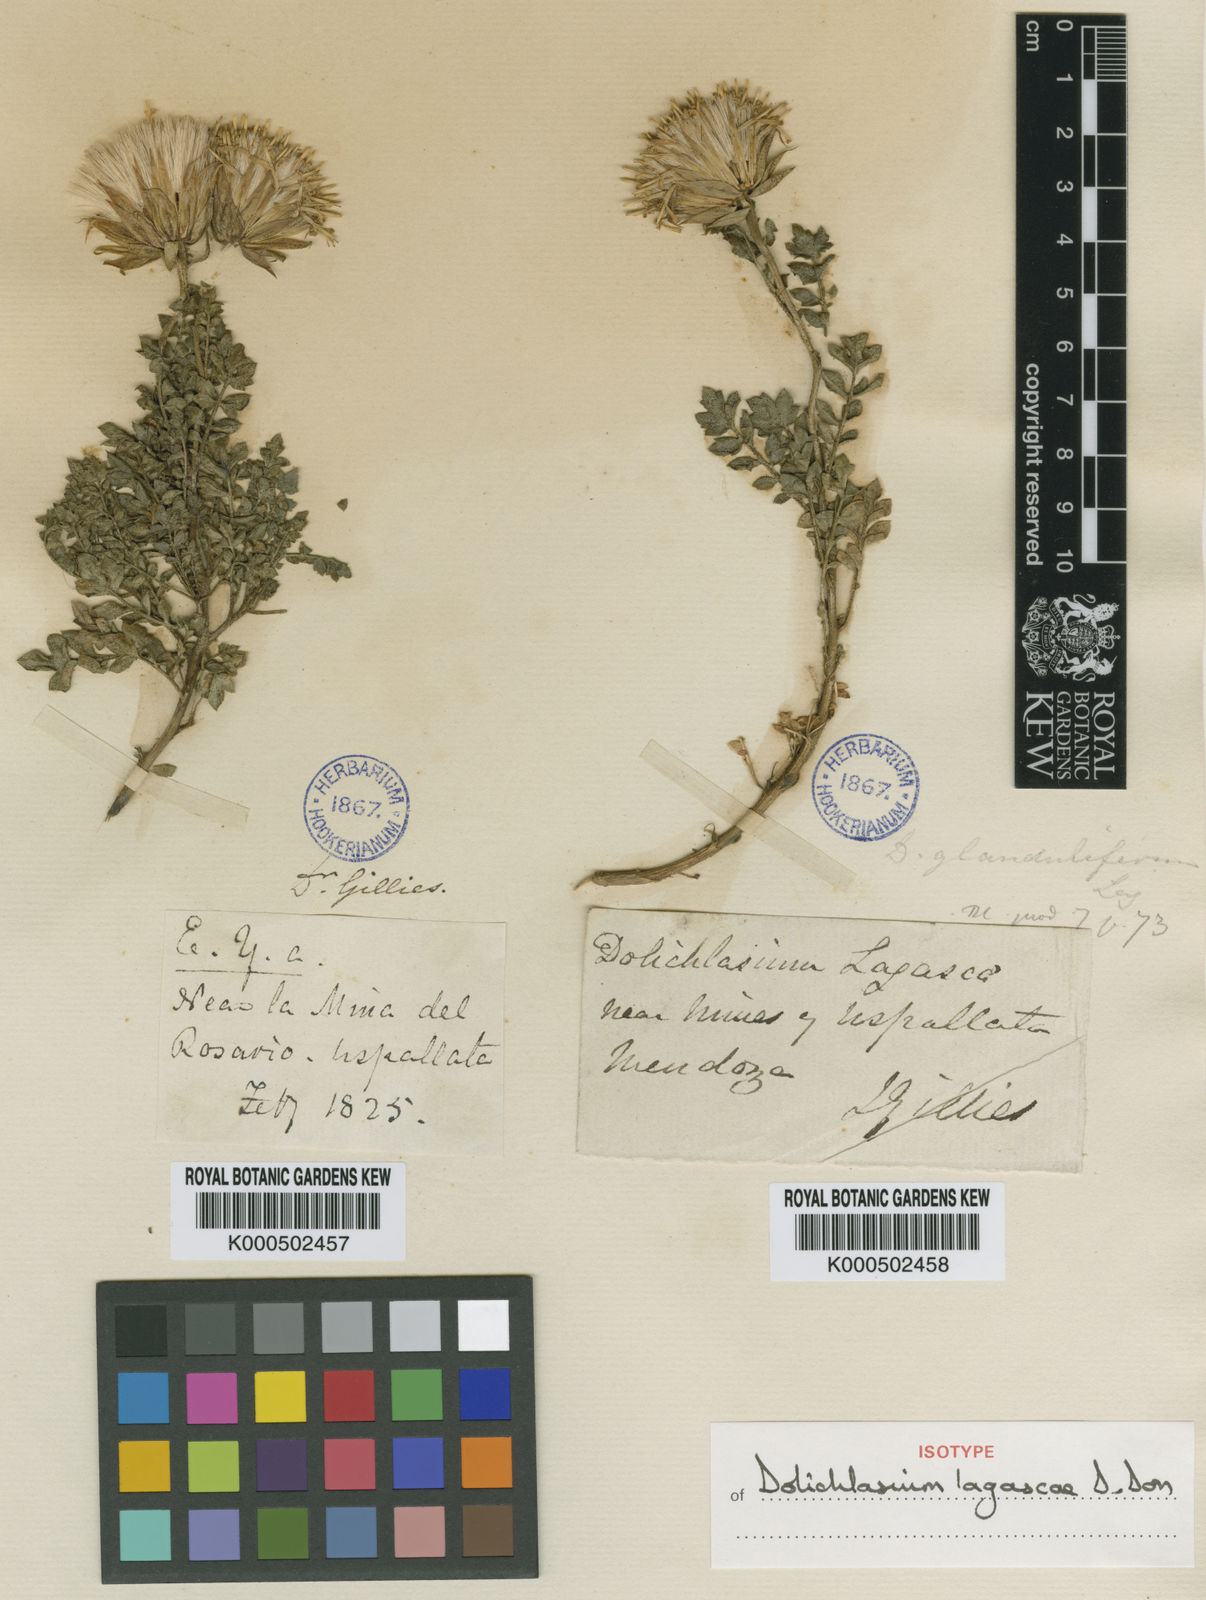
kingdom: Plantae
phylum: Tracheophyta
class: Magnoliopsida
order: Asterales
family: Asteraceae
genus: Dolichlasium
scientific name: Dolichlasium lagascae
